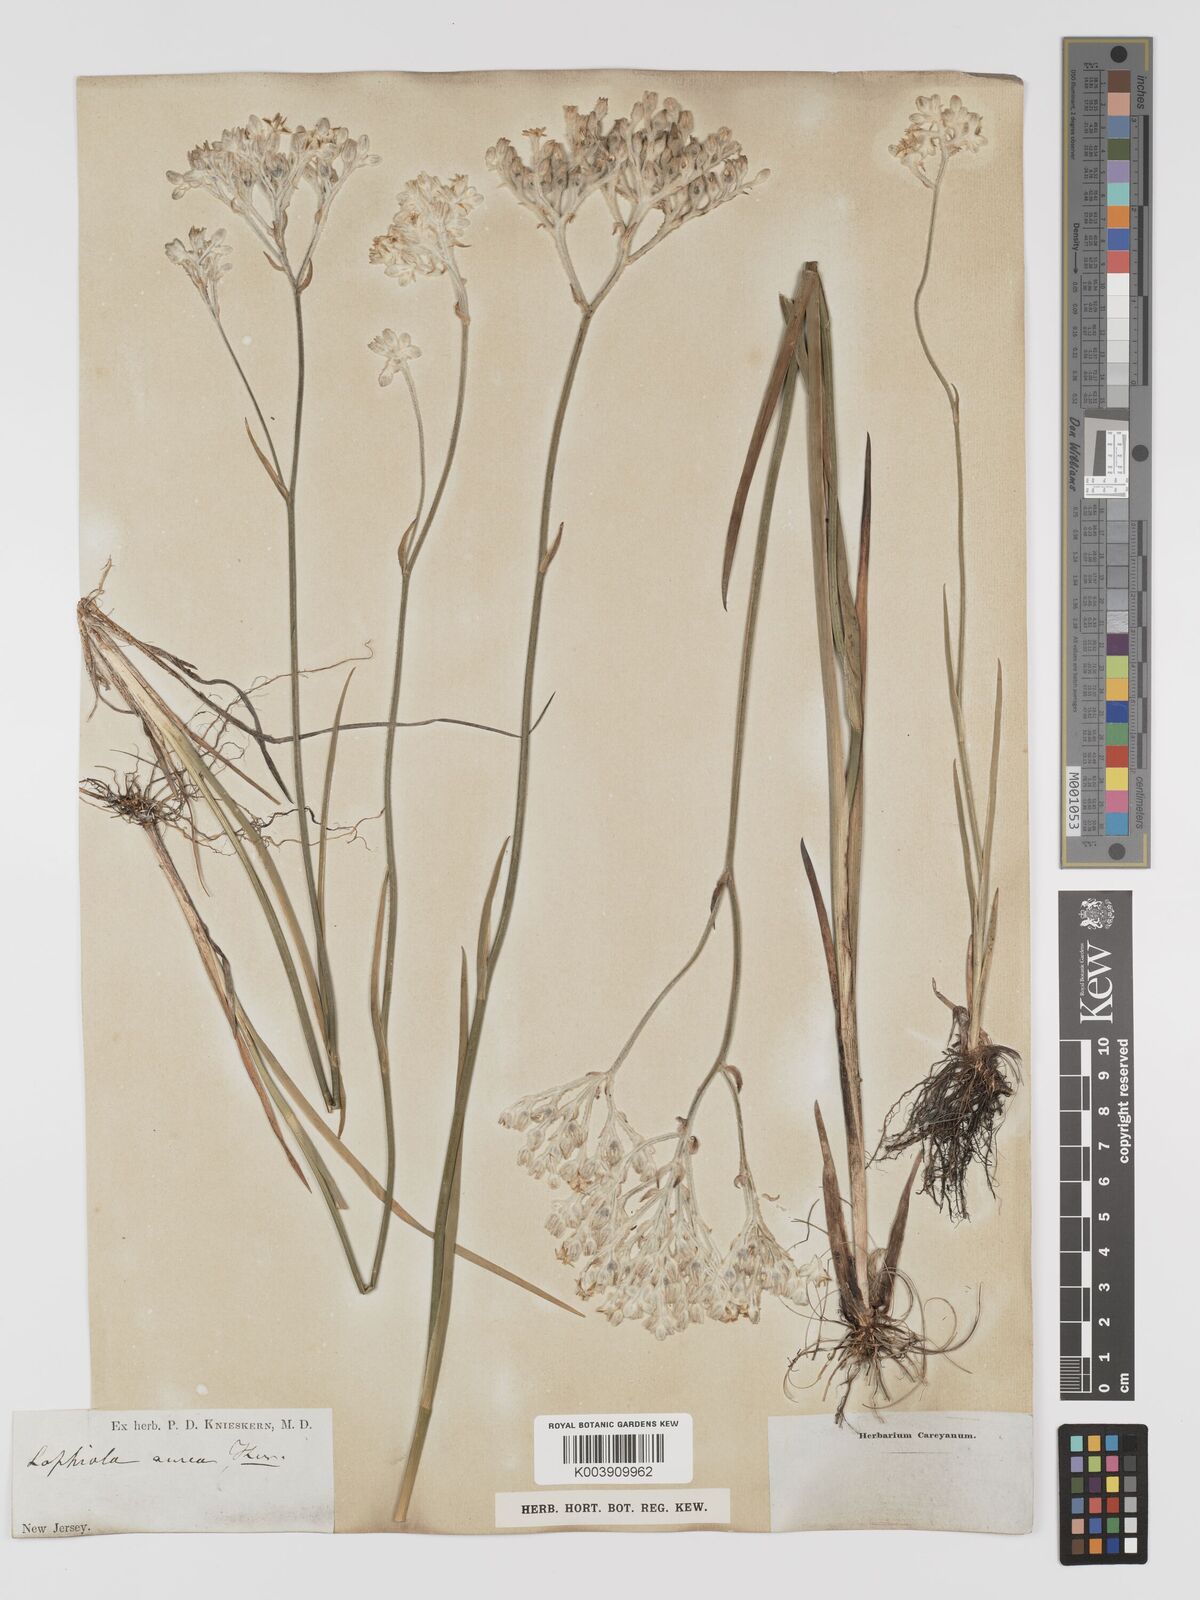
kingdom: Plantae
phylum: Tracheophyta
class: Liliopsida
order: Dioscoreales
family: Nartheciaceae
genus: Lophiola
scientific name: Lophiola aurea
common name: Golden-crest
